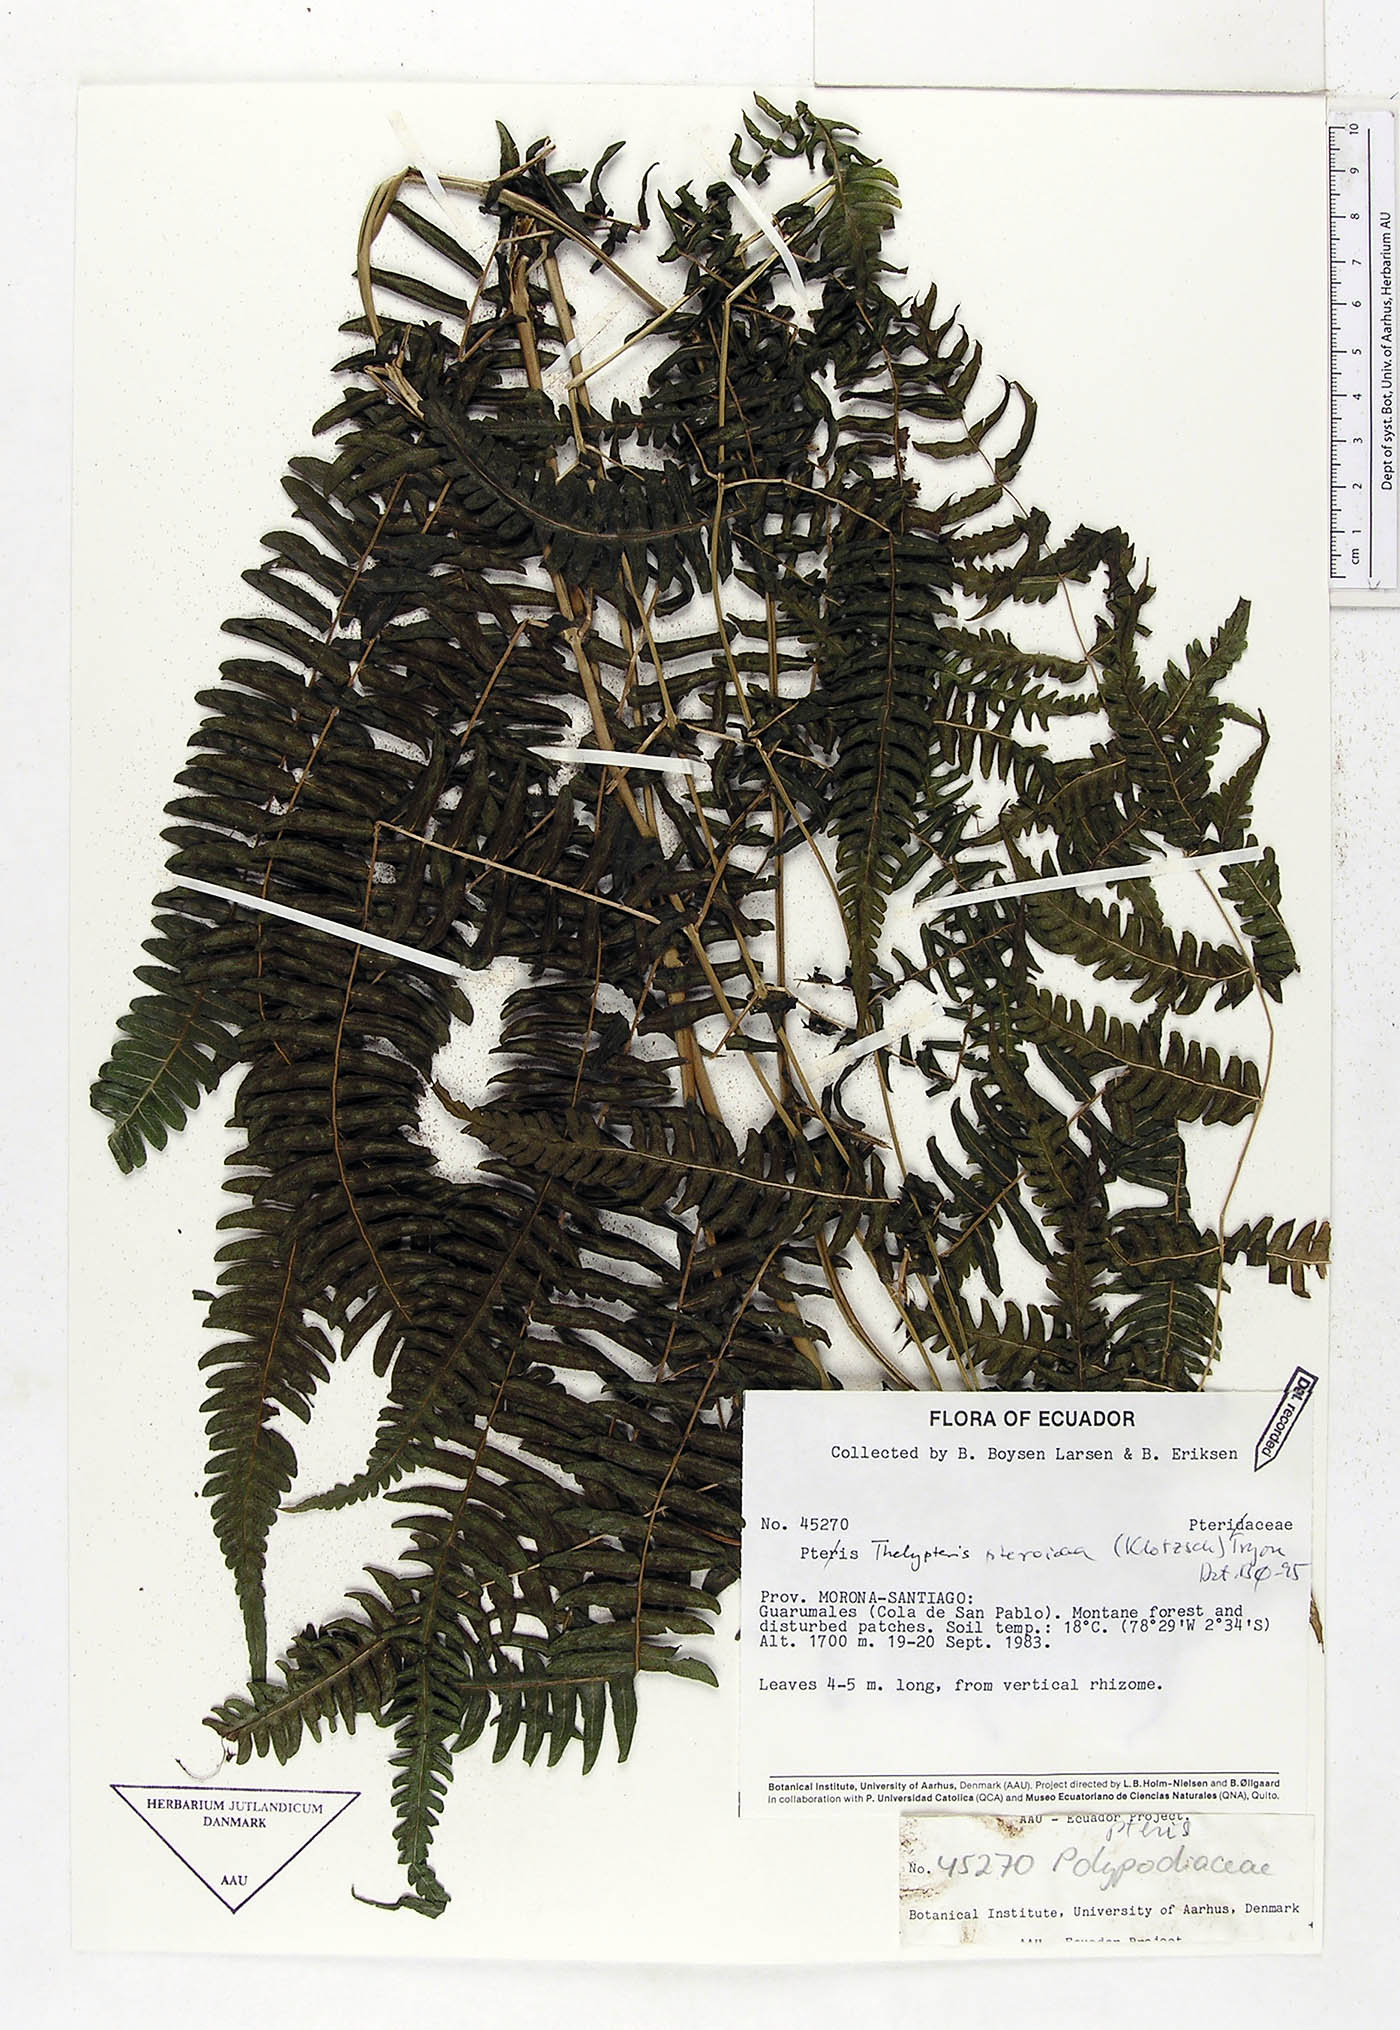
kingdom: Plantae
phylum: Tracheophyta
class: Polypodiopsida
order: Polypodiales
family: Thelypteridaceae
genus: Amauropelta
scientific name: Amauropelta pteroidea
